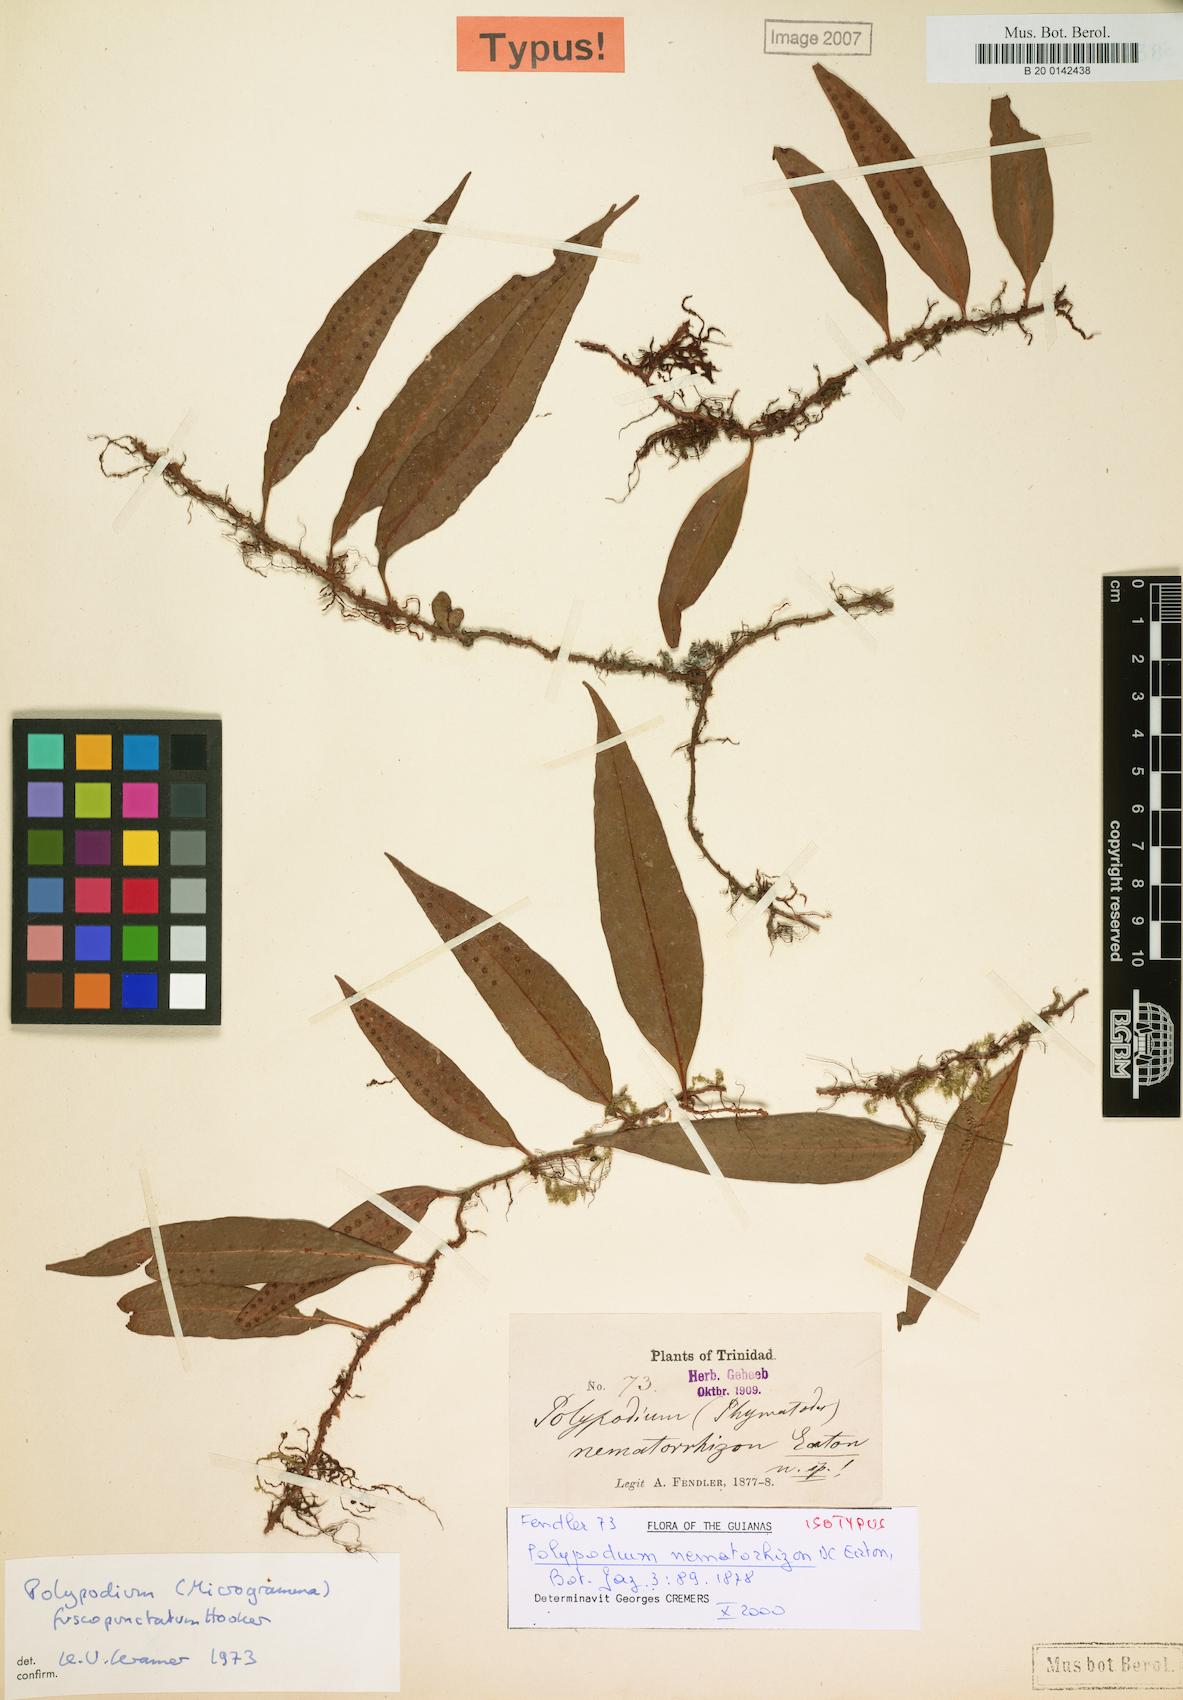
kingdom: Plantae
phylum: Tracheophyta
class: Polypodiopsida
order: Polypodiales
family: Polypodiaceae
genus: Microgramma
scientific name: Microgramma dictyophylla
